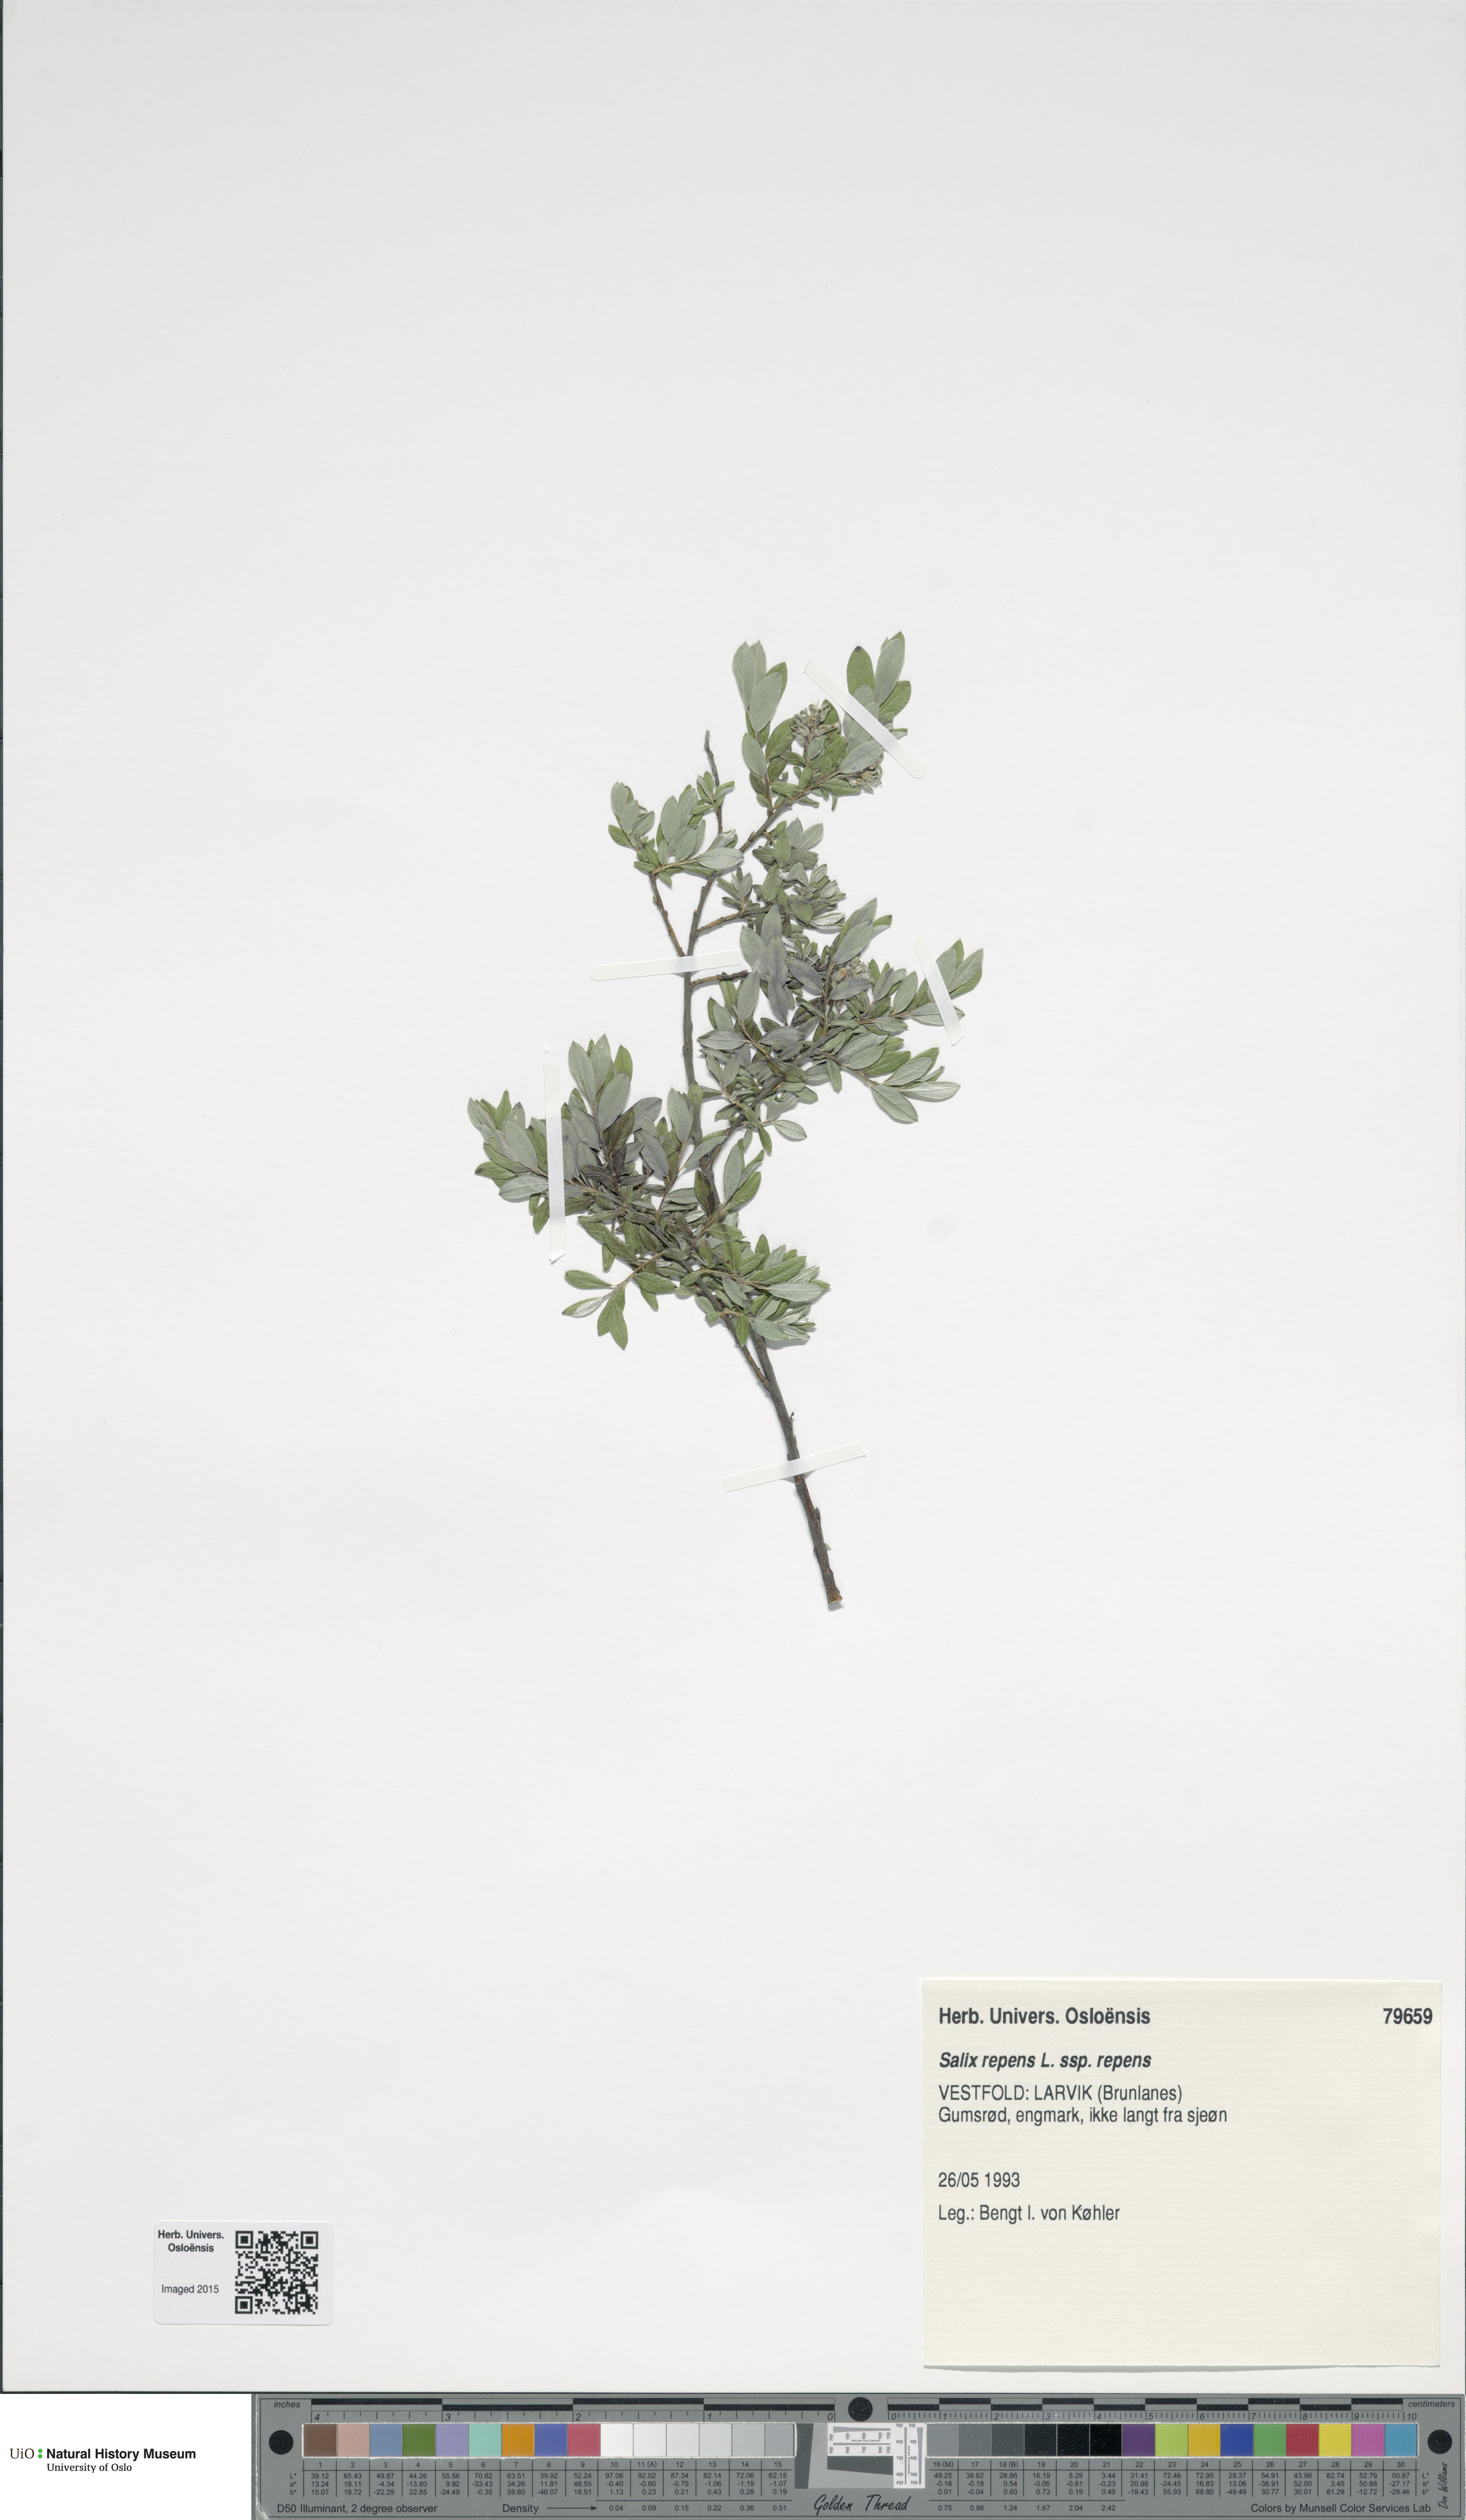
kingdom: Plantae
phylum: Tracheophyta
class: Magnoliopsida
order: Malpighiales
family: Salicaceae
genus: Salix
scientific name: Salix repens
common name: Creeping willow
